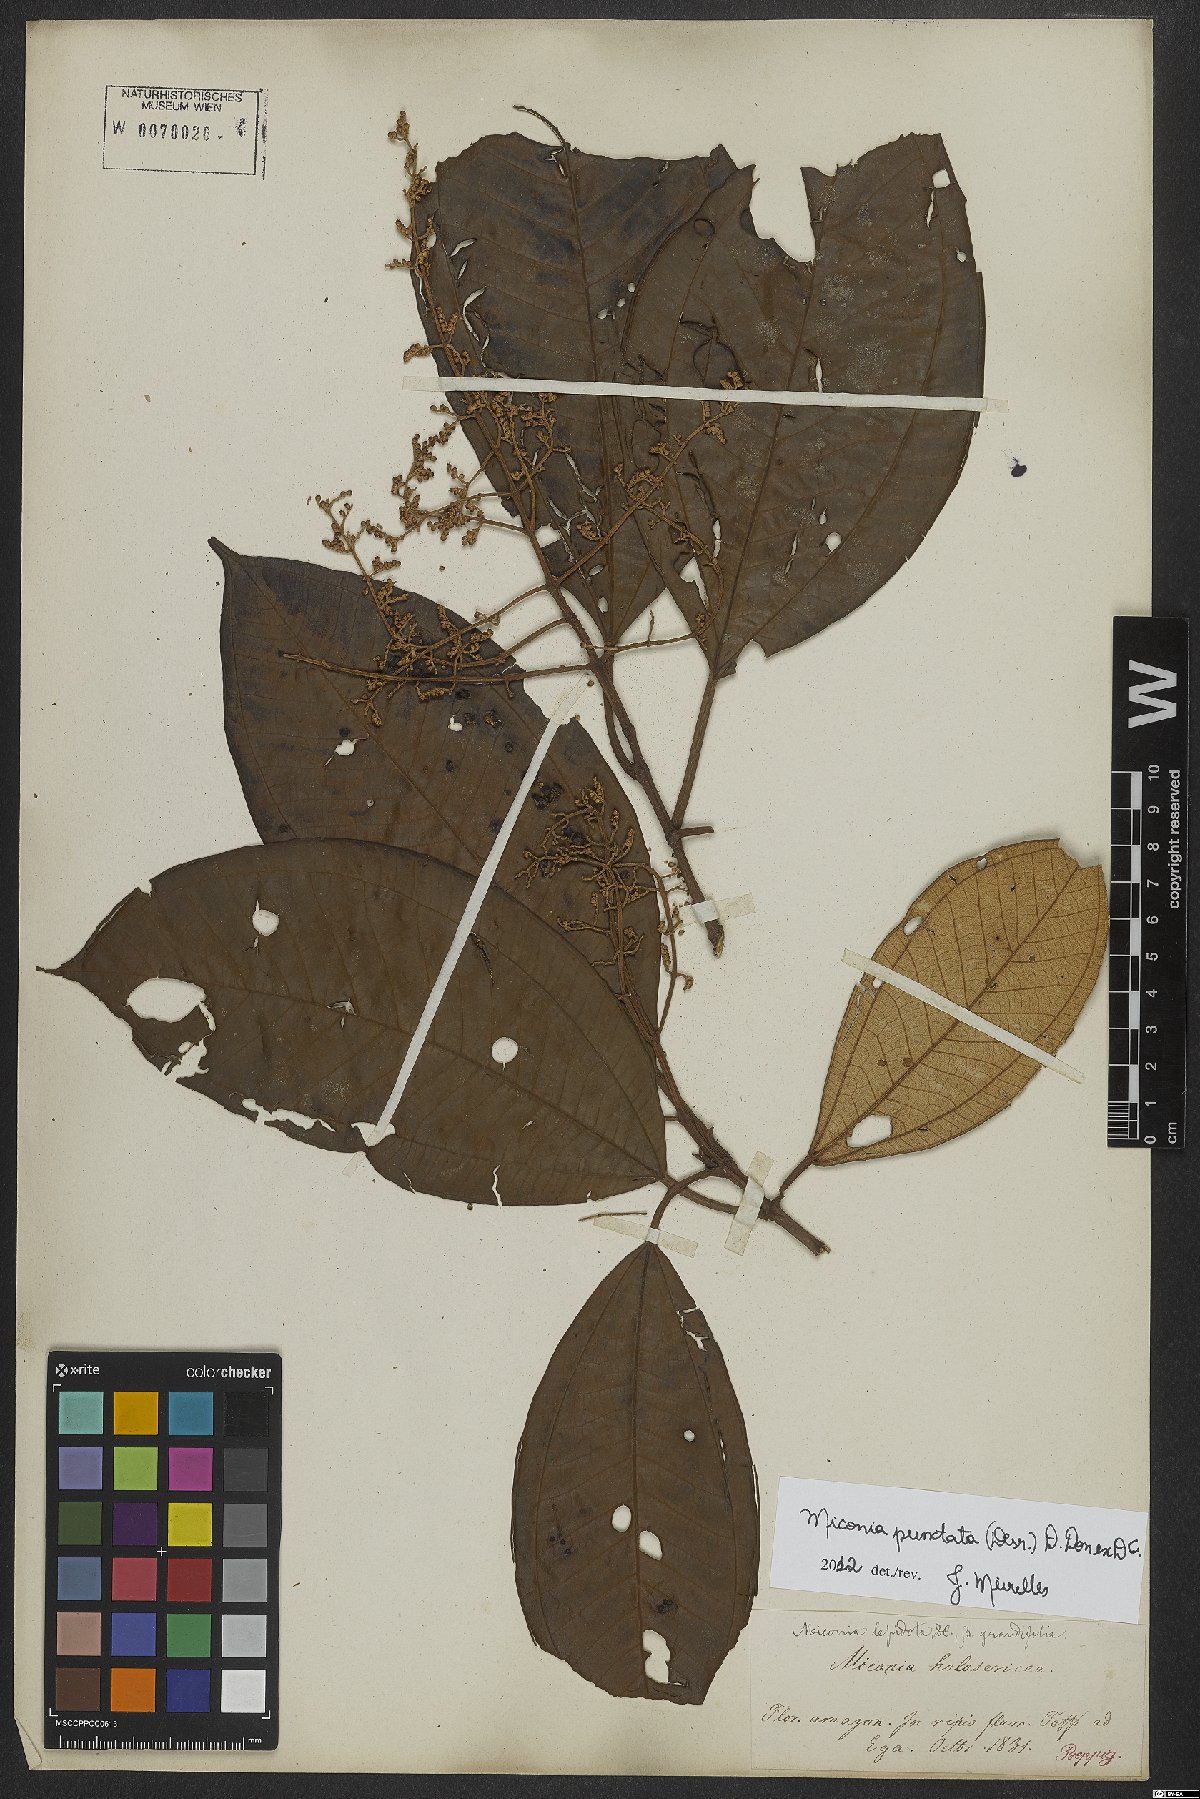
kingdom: Plantae
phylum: Tracheophyta
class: Magnoliopsida
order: Myrtales
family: Melastomataceae
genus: Miconia
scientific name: Miconia punctata
